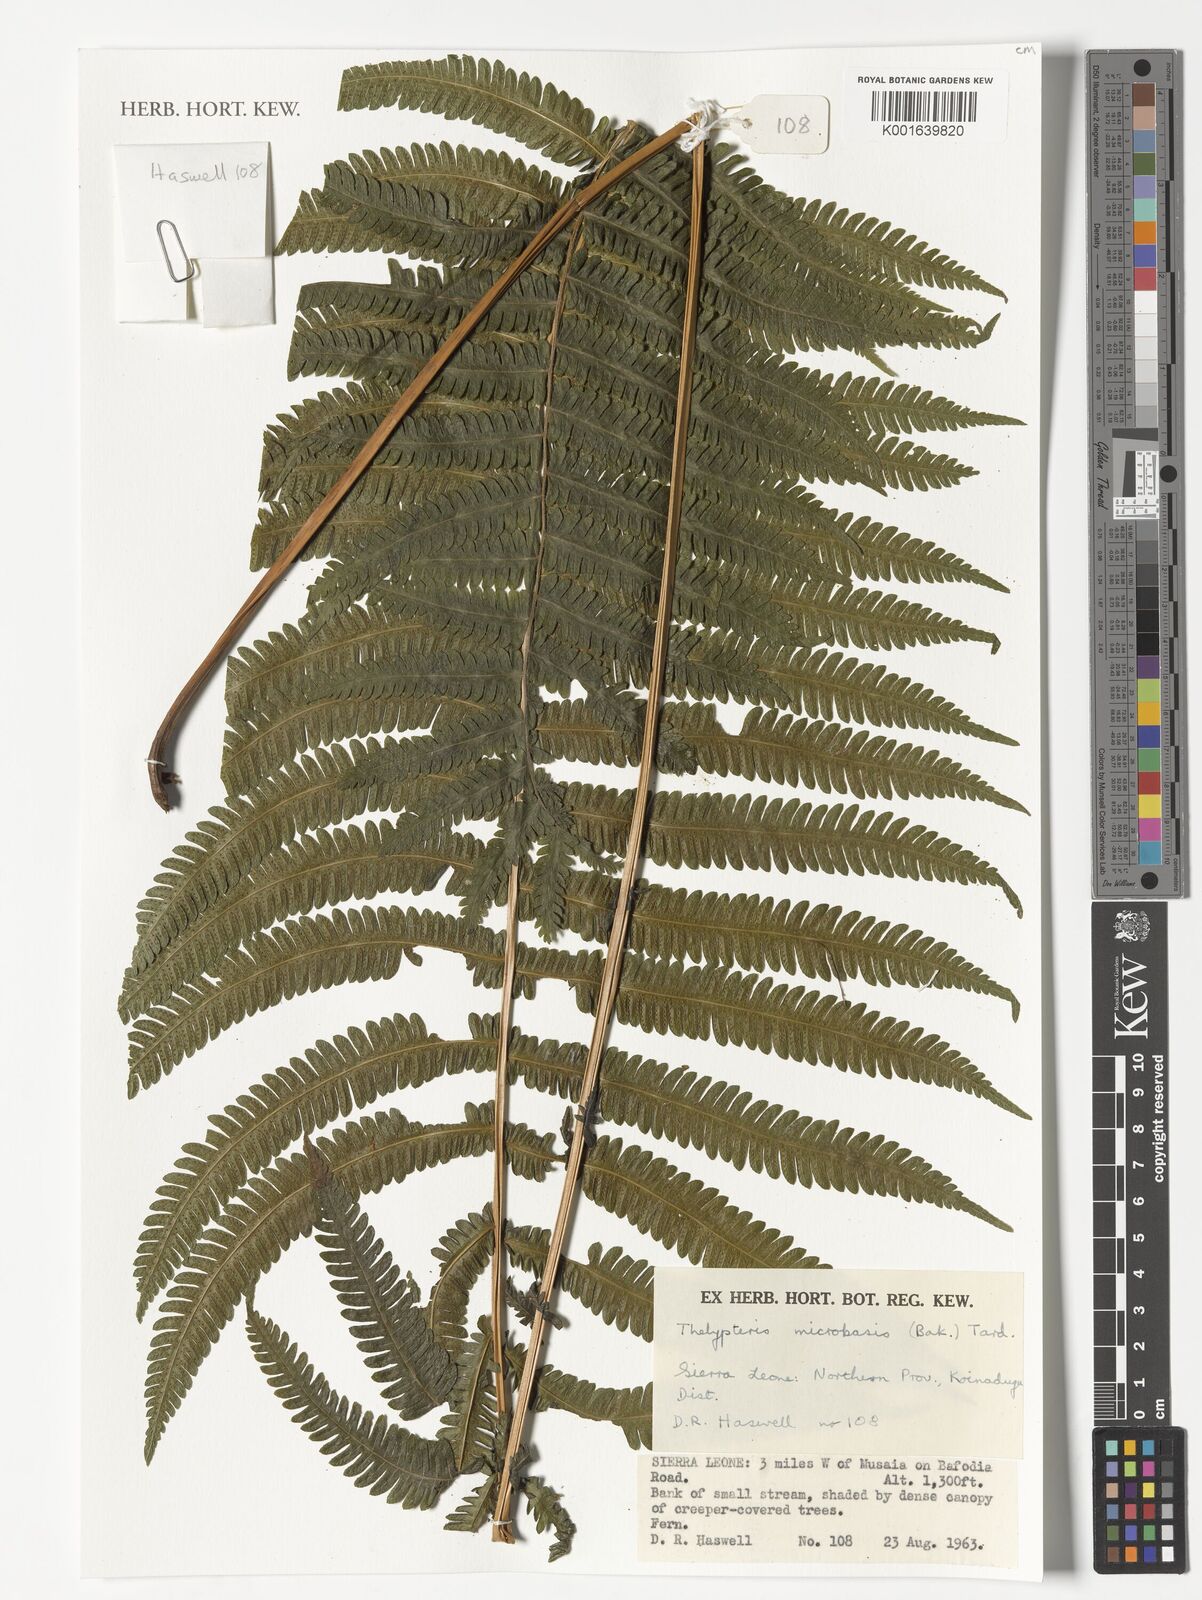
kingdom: Plantae
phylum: Tracheophyta
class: Polypodiopsida
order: Polypodiales
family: Thelypteridaceae
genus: Christella
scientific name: Christella microbasis
